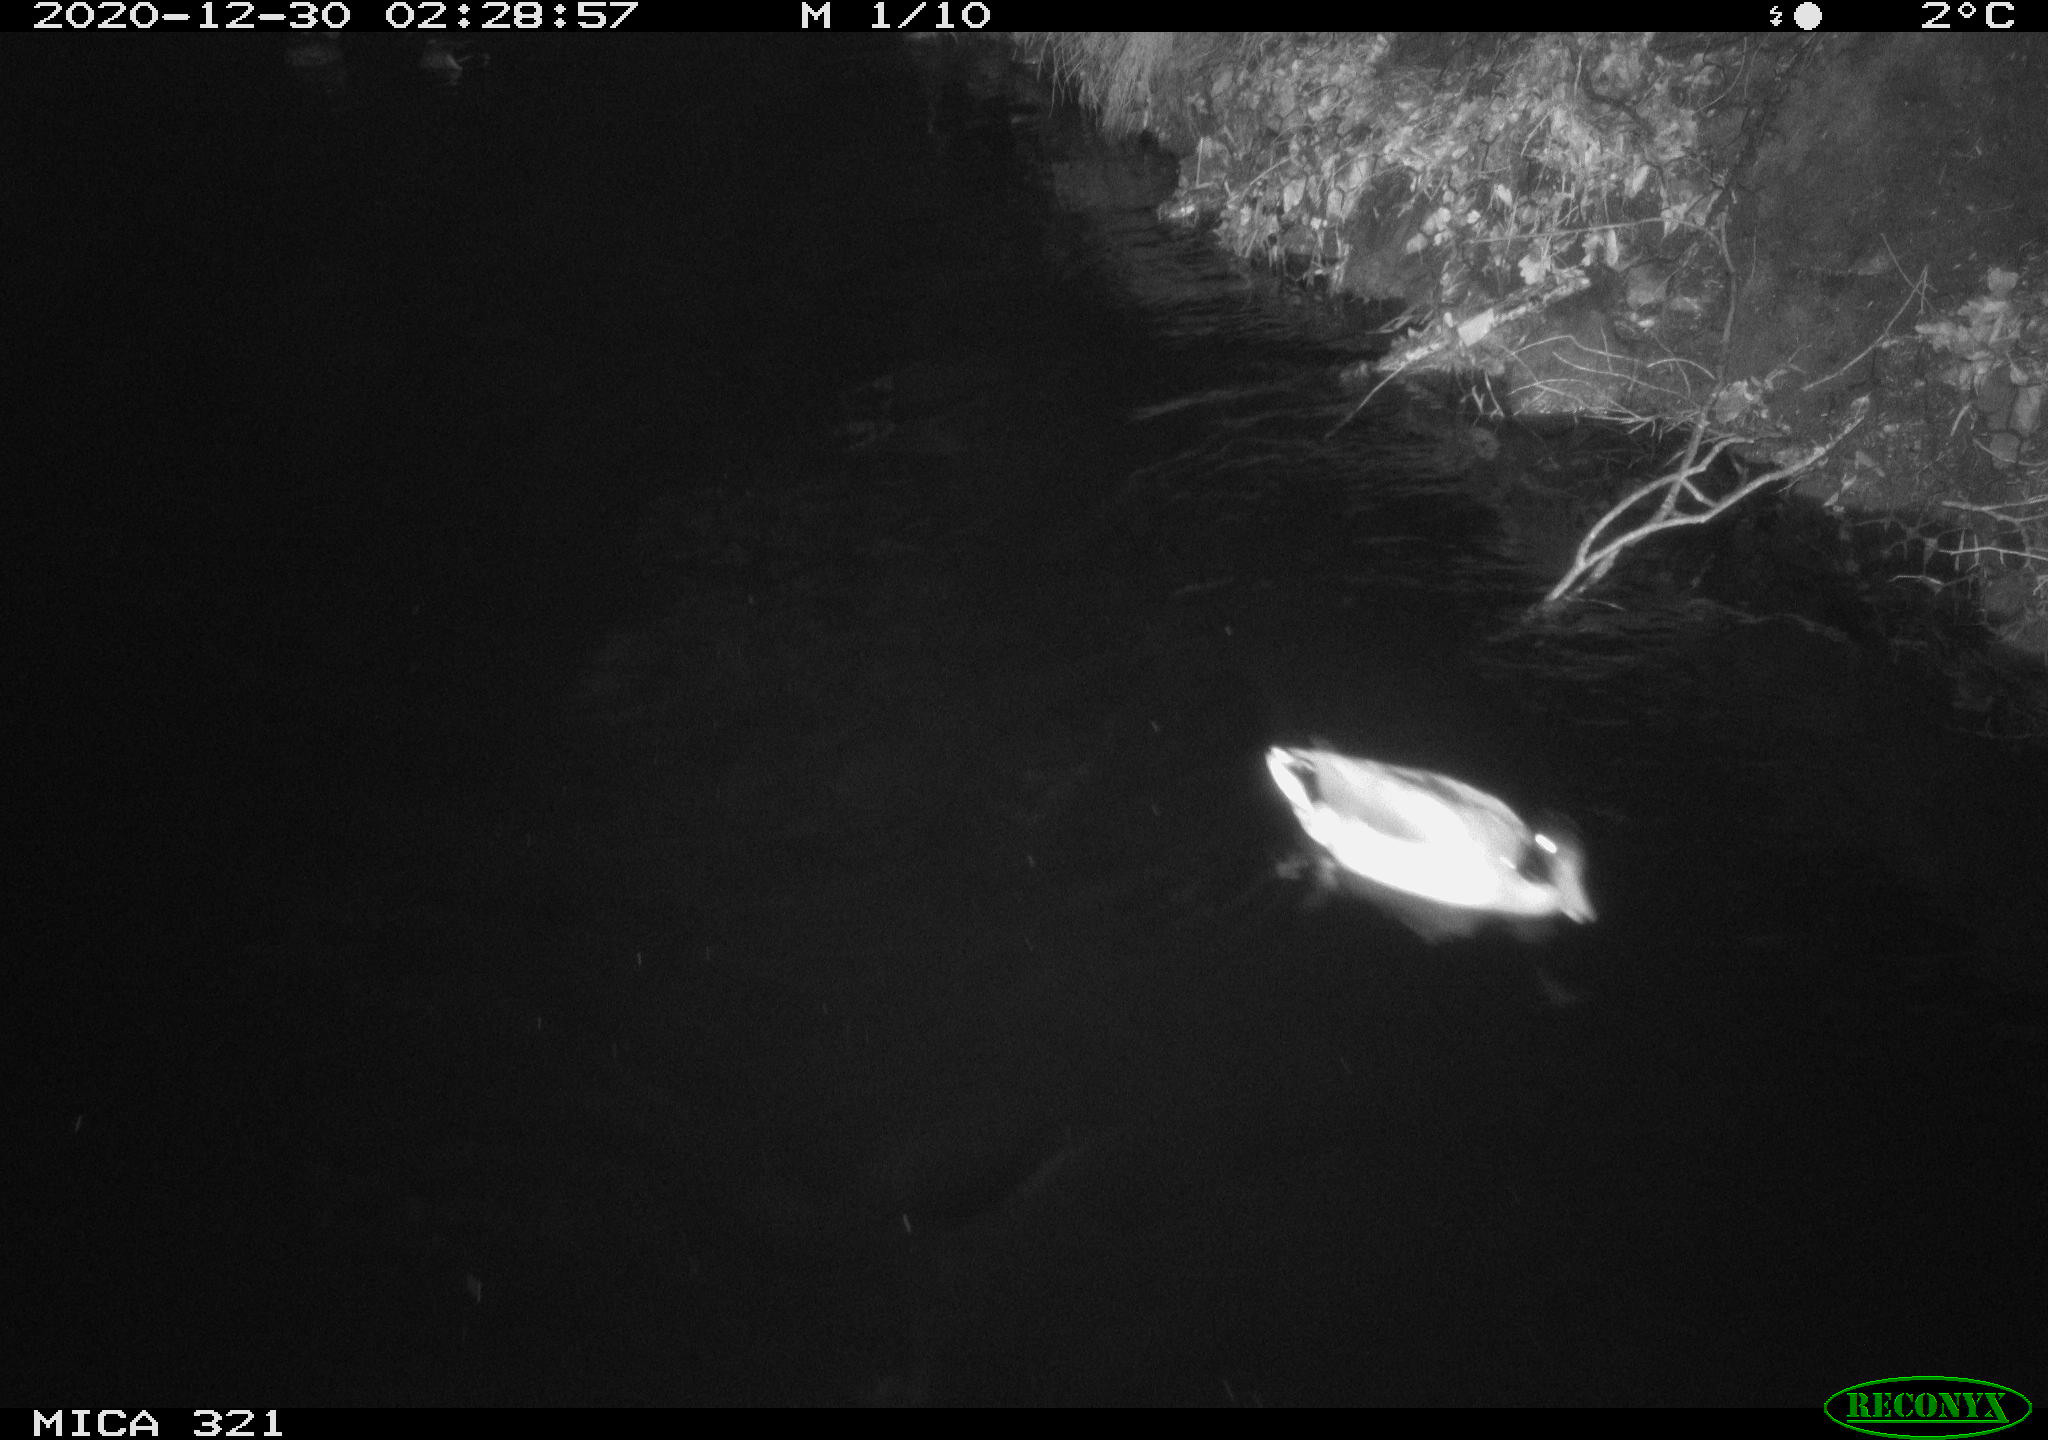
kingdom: Animalia
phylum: Chordata
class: Aves
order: Anseriformes
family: Anatidae
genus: Anas
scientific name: Anas platyrhynchos
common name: Mallard
